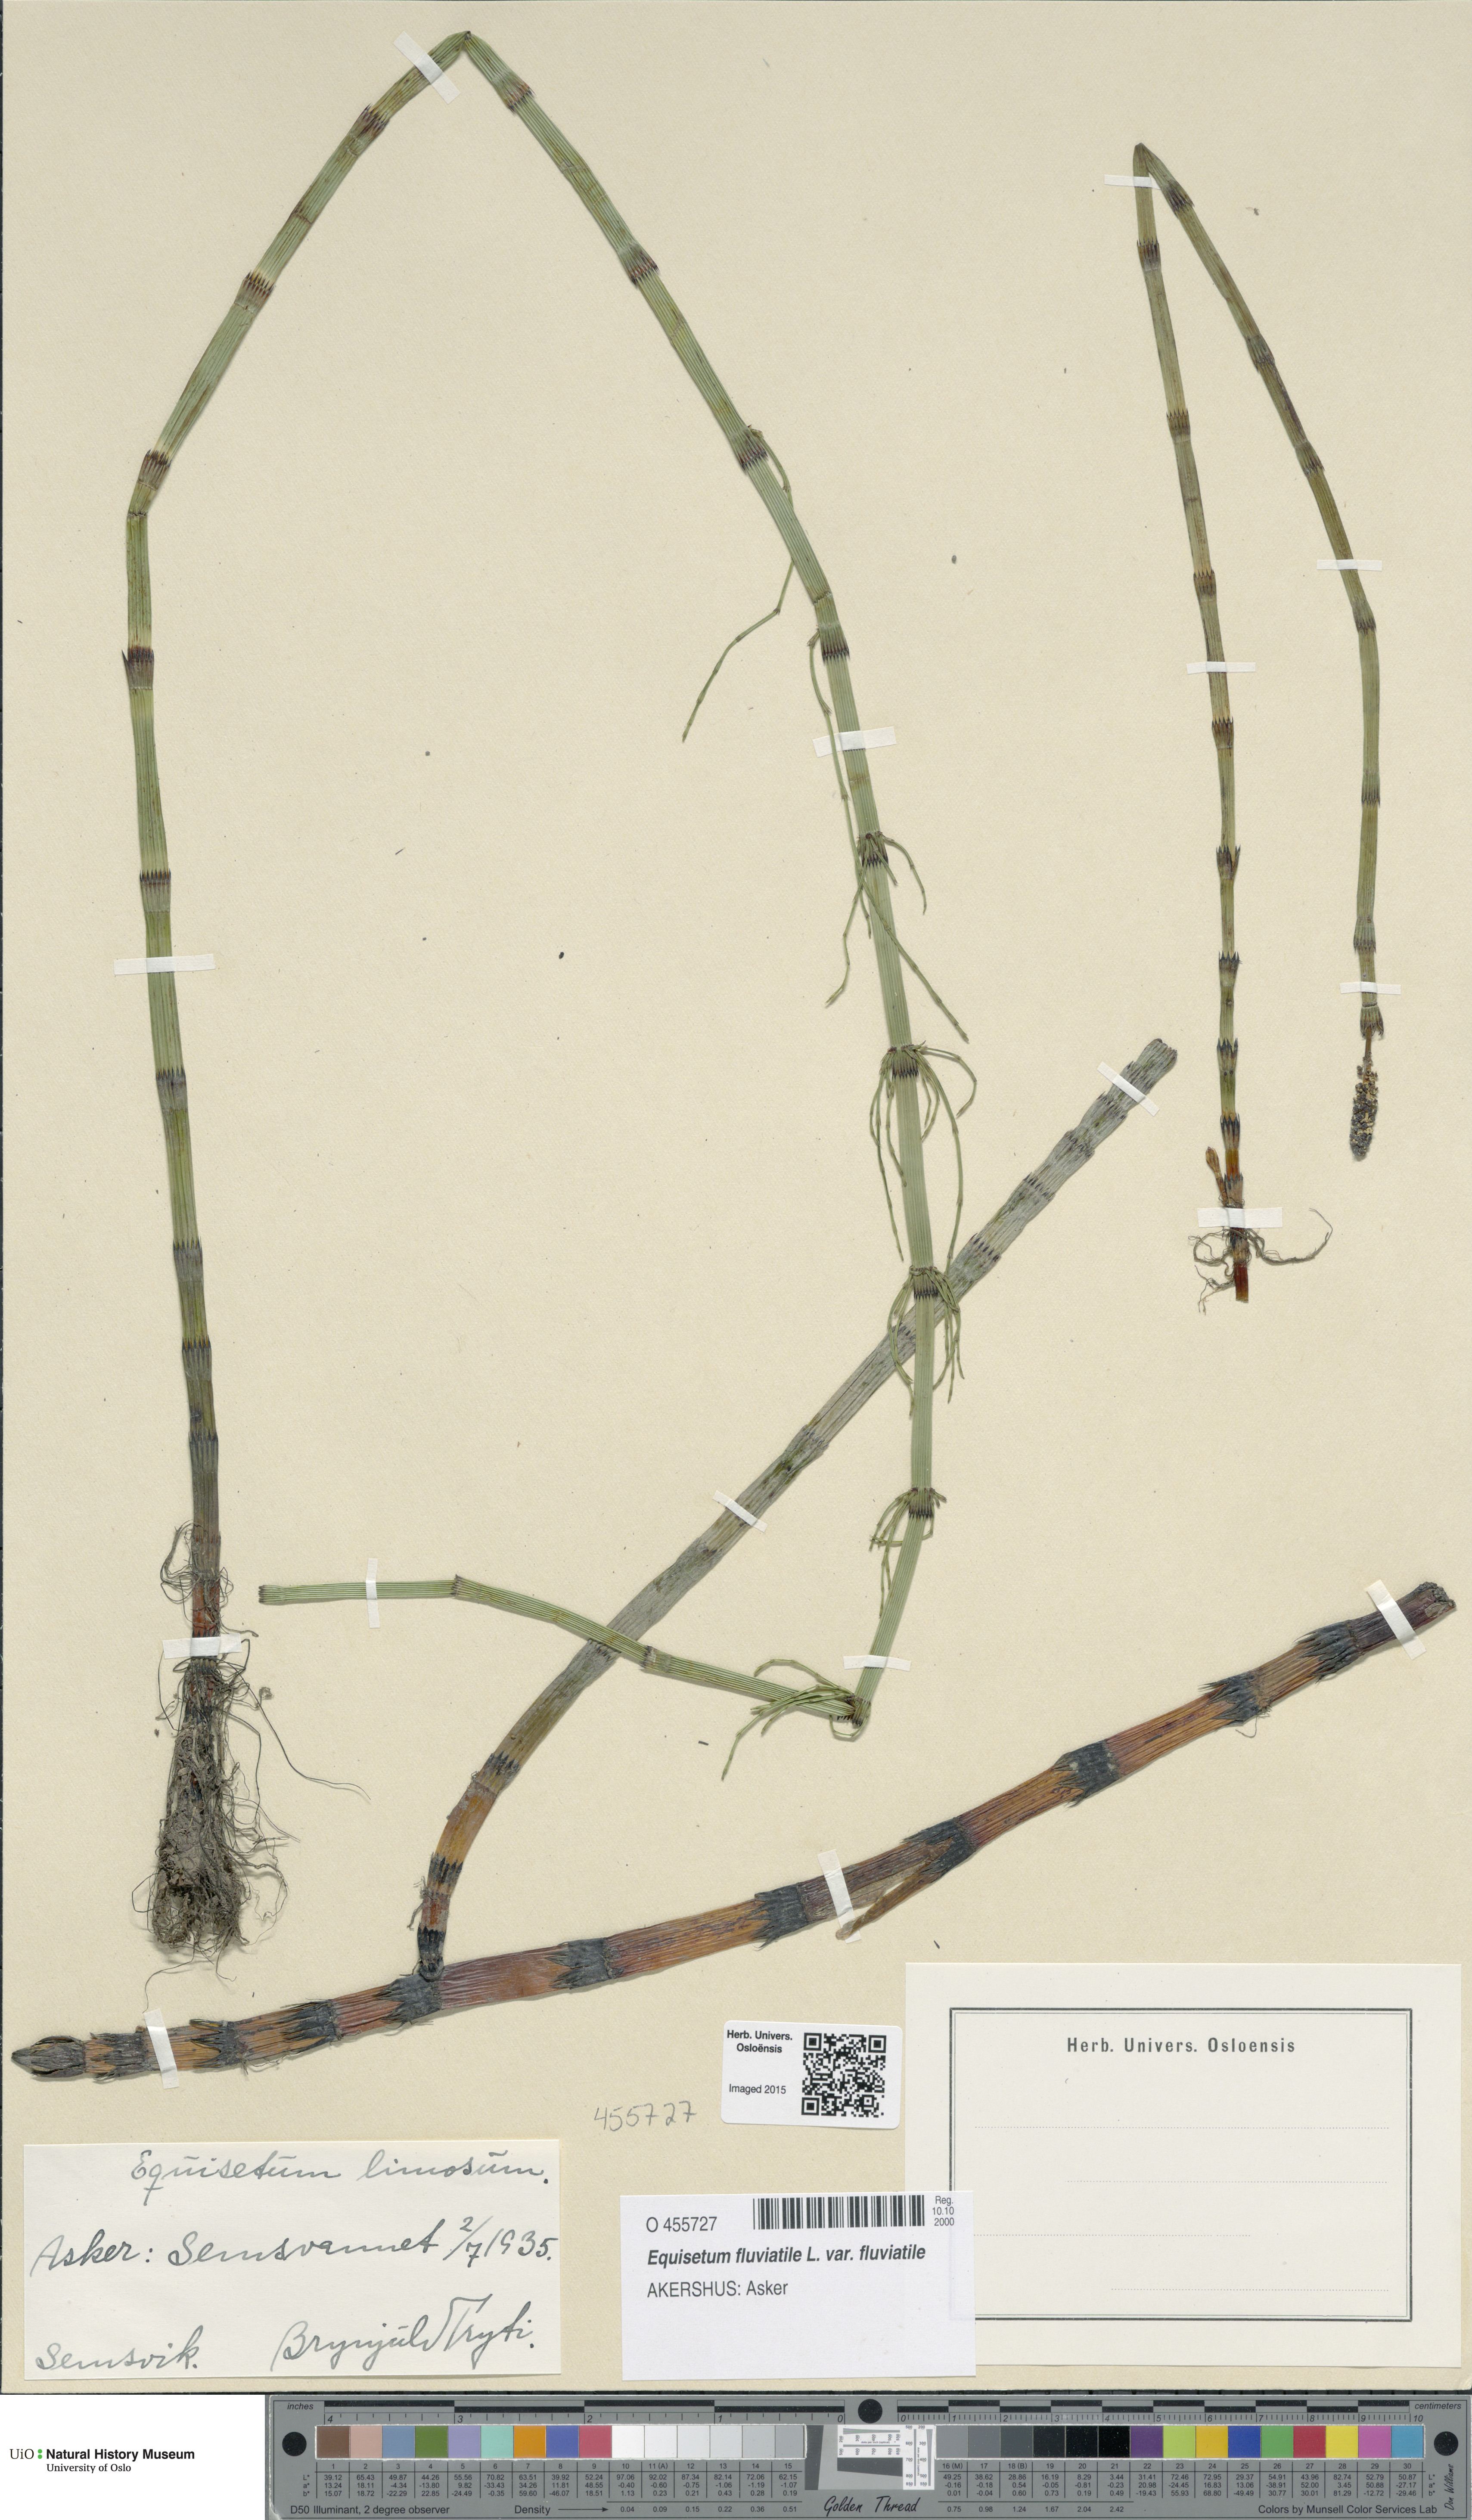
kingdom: Plantae
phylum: Tracheophyta
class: Polypodiopsida
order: Equisetales
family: Equisetaceae
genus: Equisetum
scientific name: Equisetum fluviatile
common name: Water horsetail
